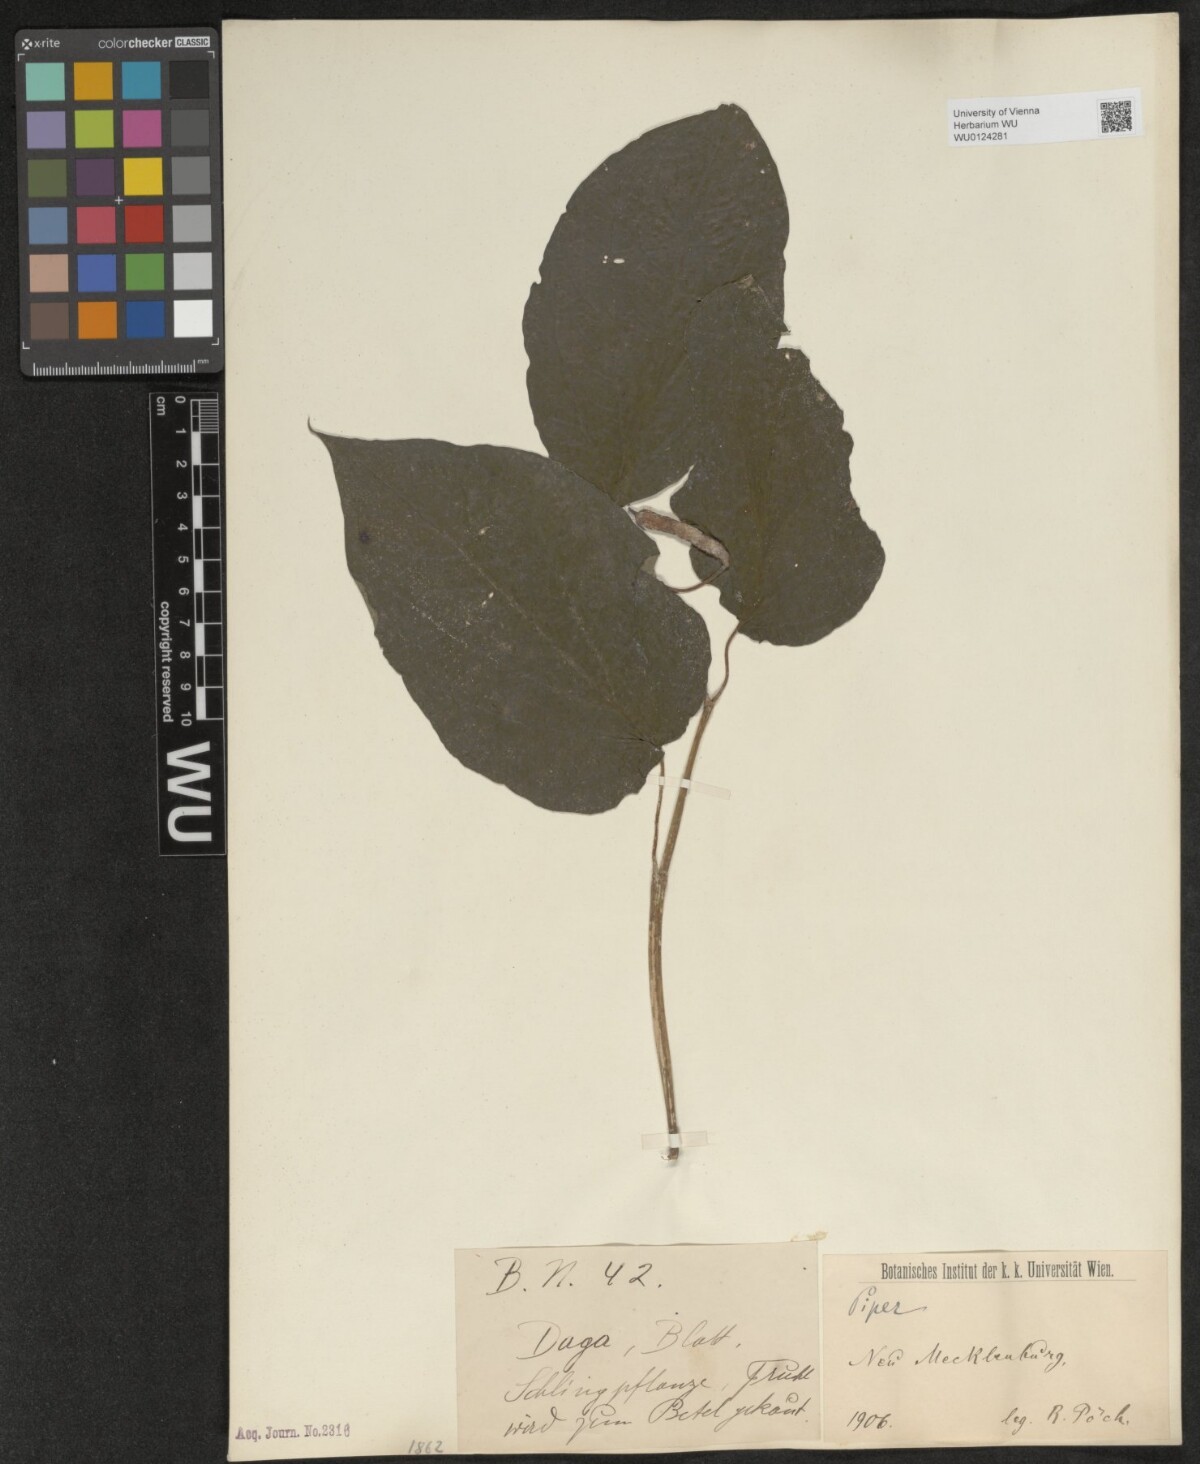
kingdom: Plantae
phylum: Tracheophyta
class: Magnoliopsida
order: Piperales
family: Piperaceae
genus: Piper
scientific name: Piper
